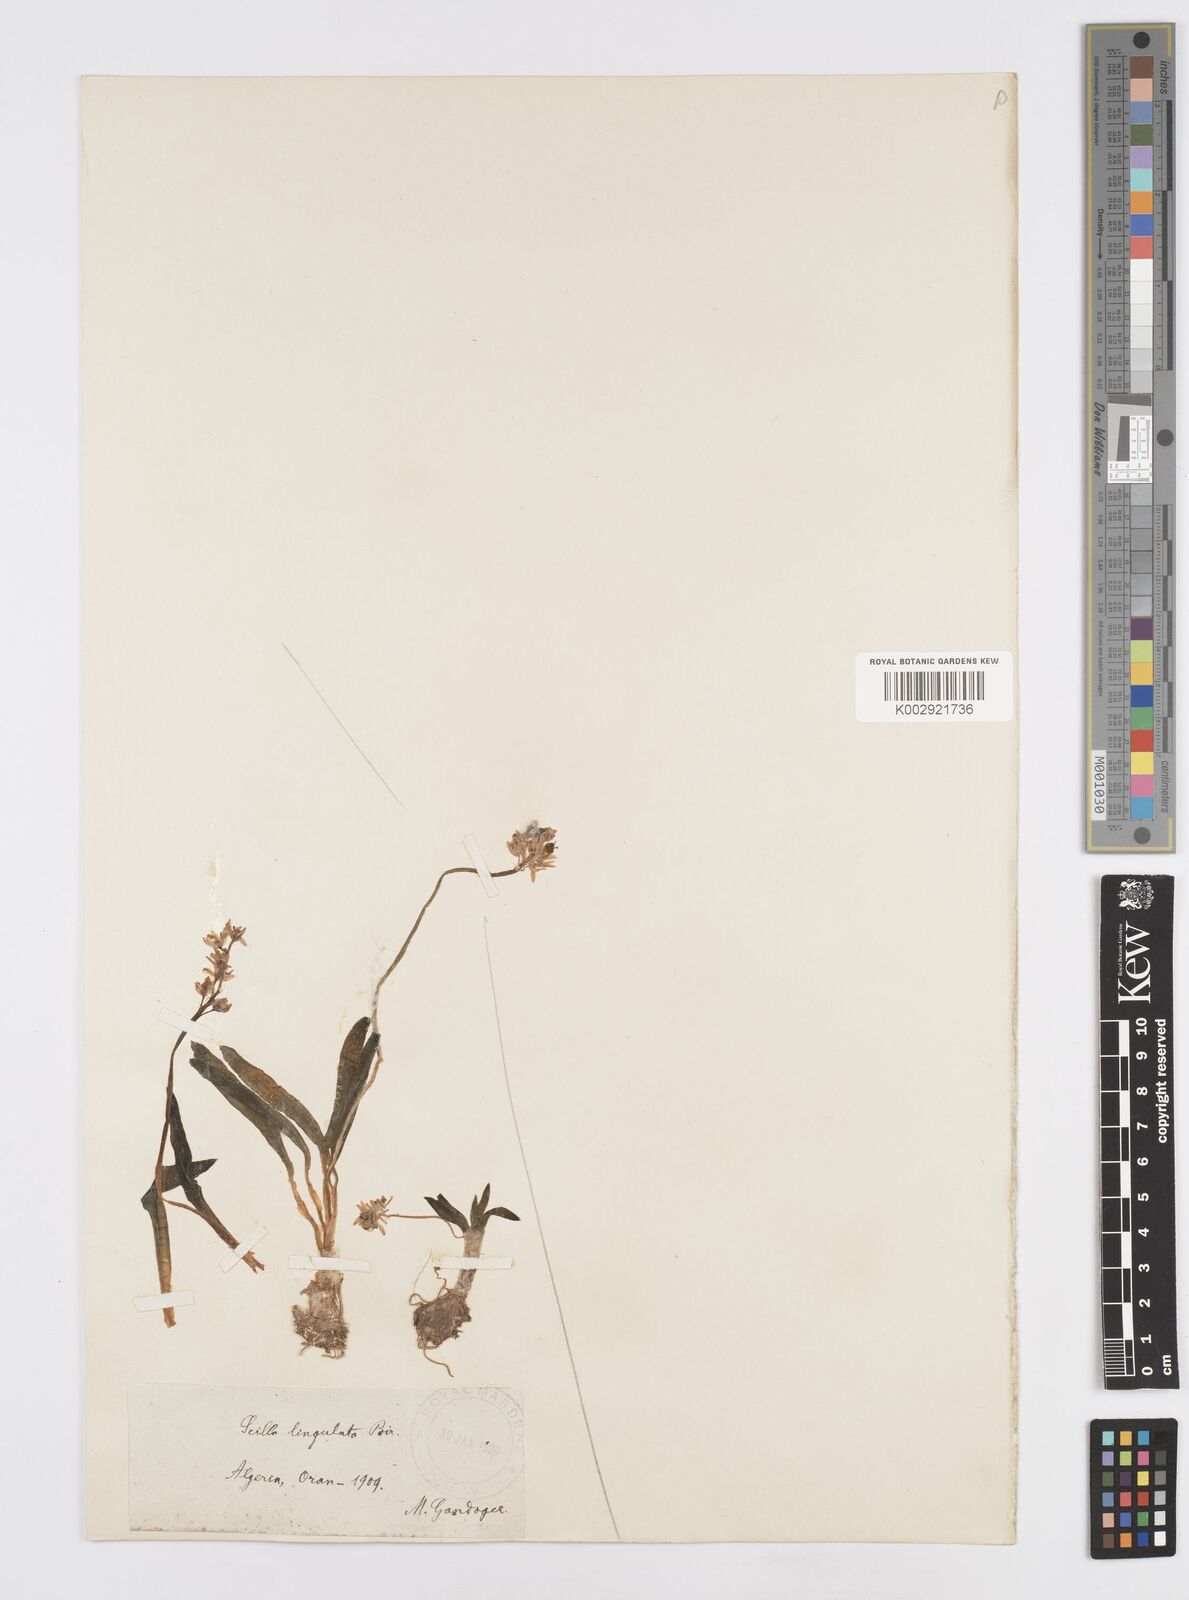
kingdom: Plantae
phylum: Tracheophyta
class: Liliopsida
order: Asparagales
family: Asparagaceae
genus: Hyacinthoides
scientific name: Hyacinthoides lingulata
